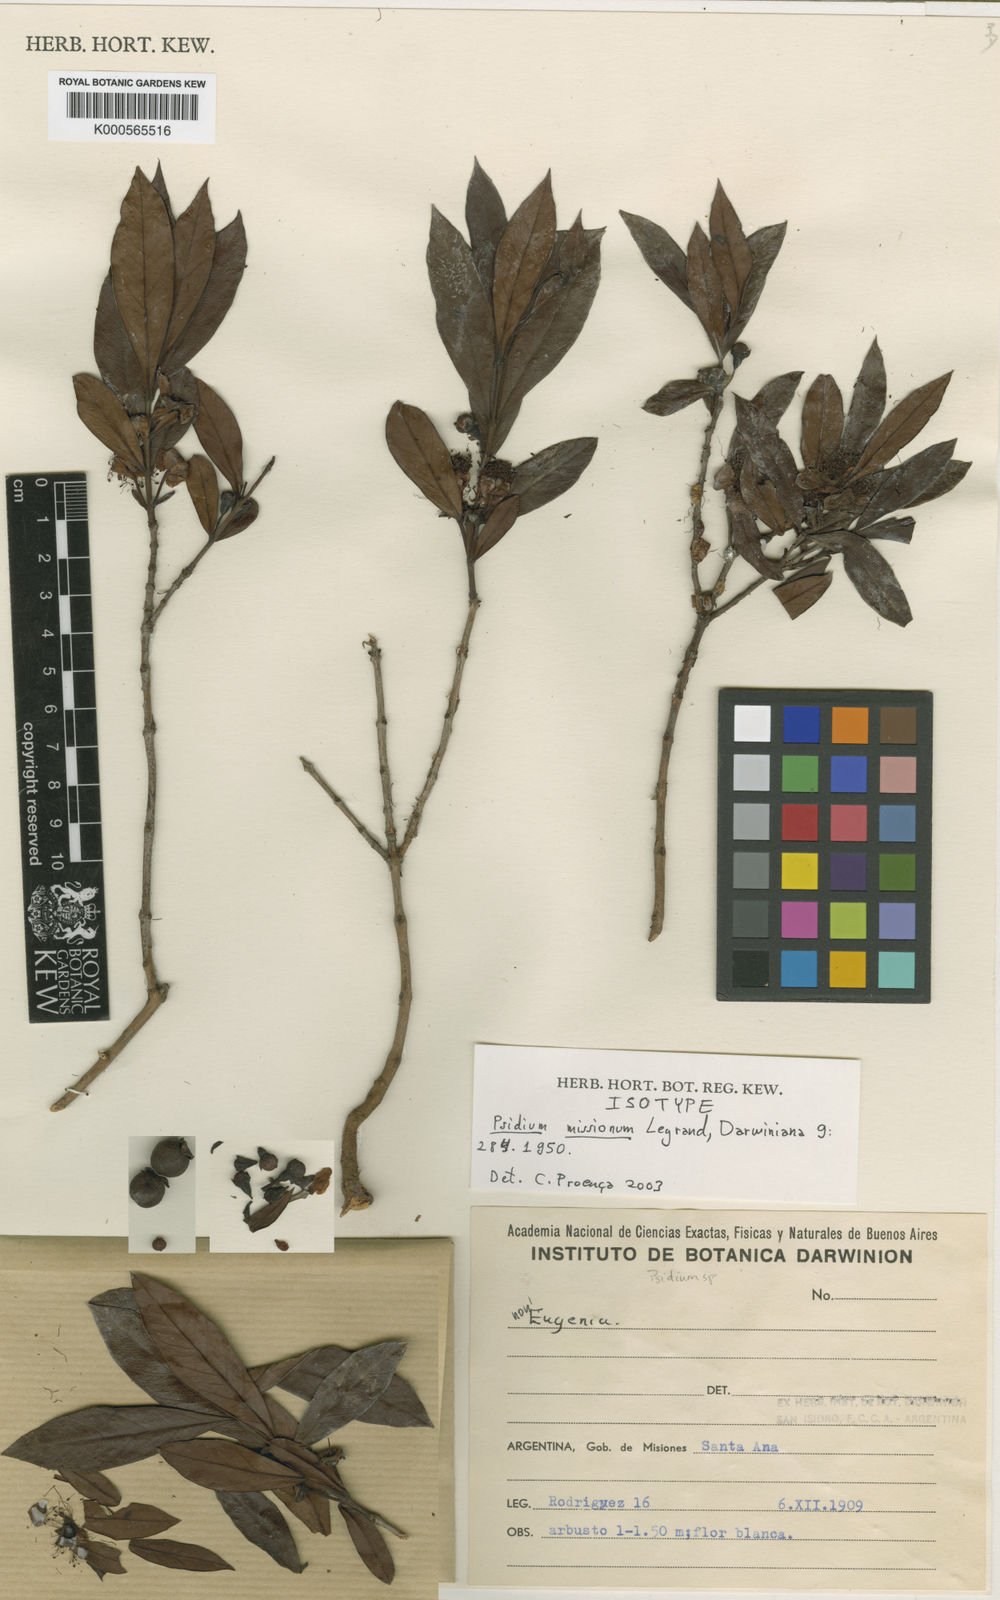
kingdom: Plantae
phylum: Tracheophyta
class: Magnoliopsida
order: Myrtales
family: Myrtaceae
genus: Psidium
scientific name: Psidium misionum
